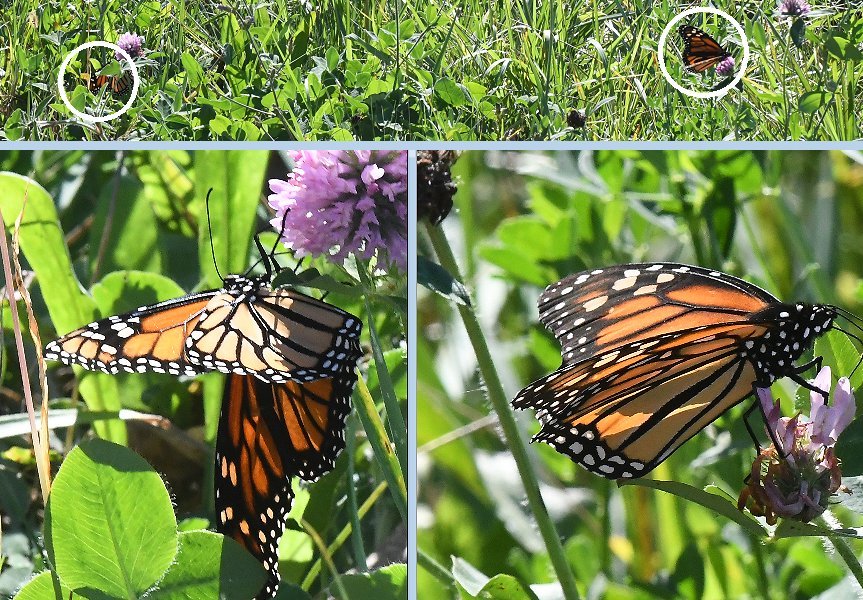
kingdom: Animalia
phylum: Arthropoda
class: Insecta
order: Lepidoptera
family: Nymphalidae
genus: Danaus
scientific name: Danaus plexippus
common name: Monarch
